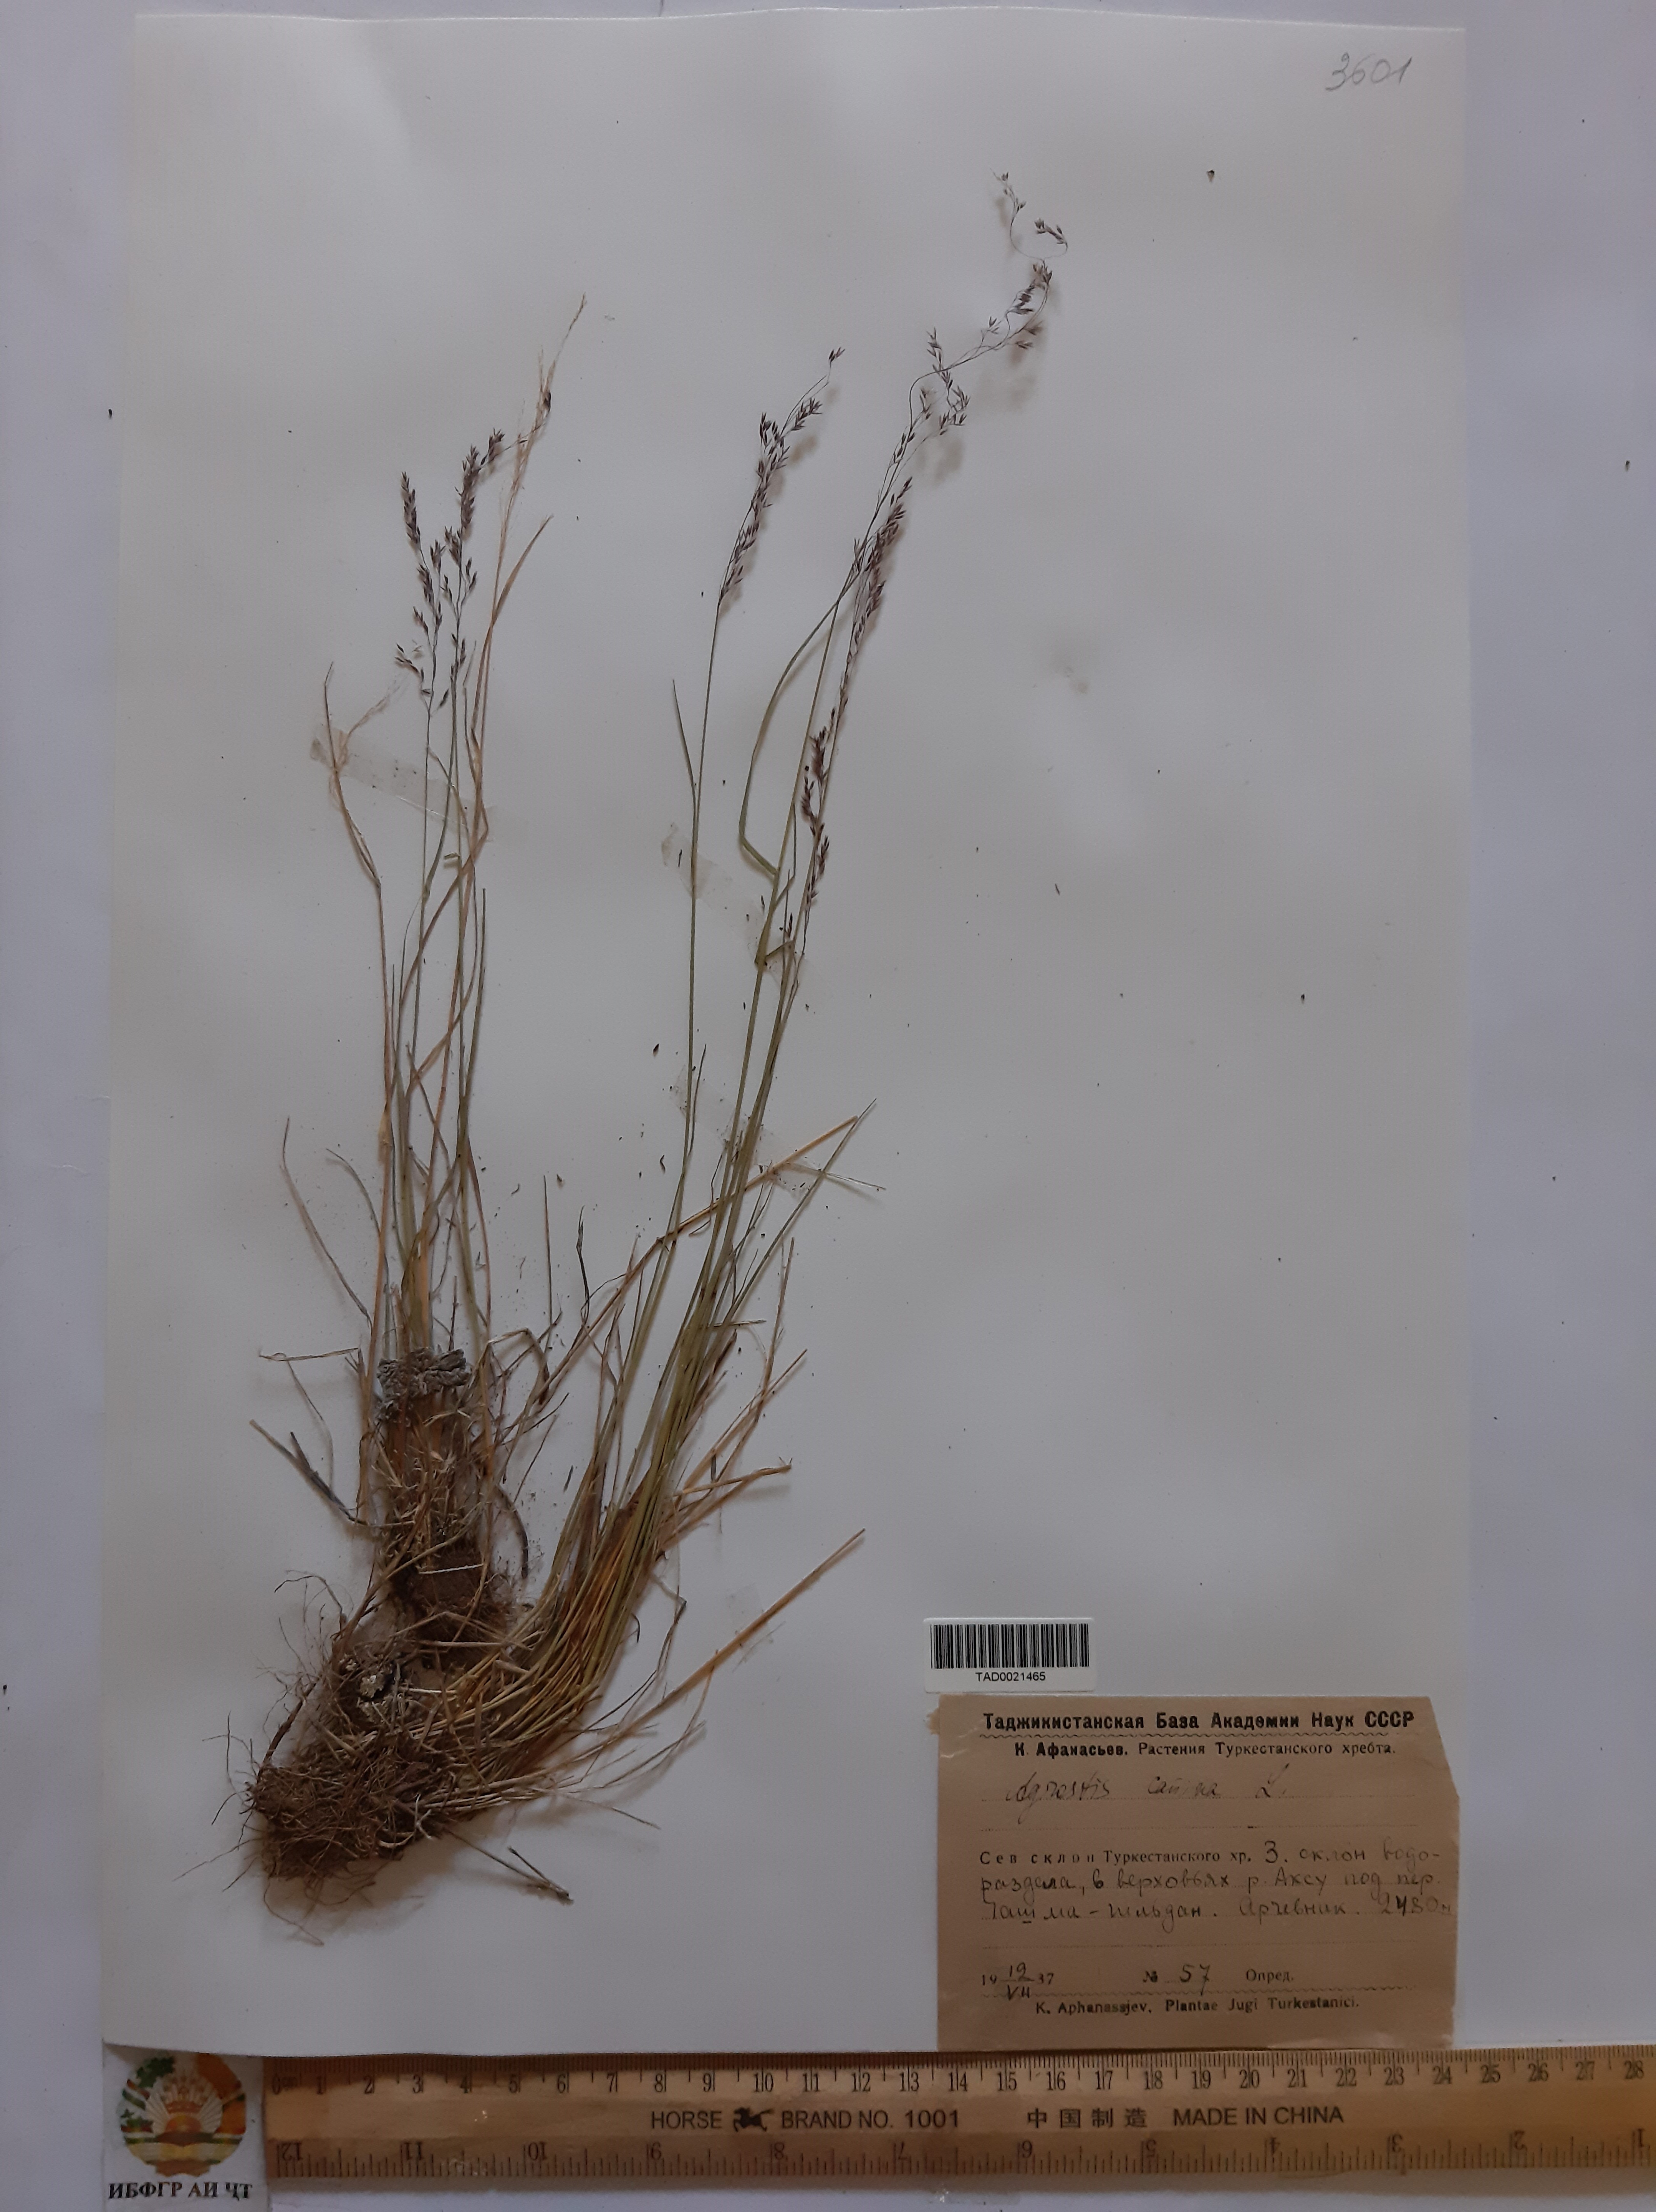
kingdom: Plantae
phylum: Tracheophyta
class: Liliopsida
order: Poales
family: Poaceae
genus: Agrostis
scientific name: Agrostis canina
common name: Velvet bent
